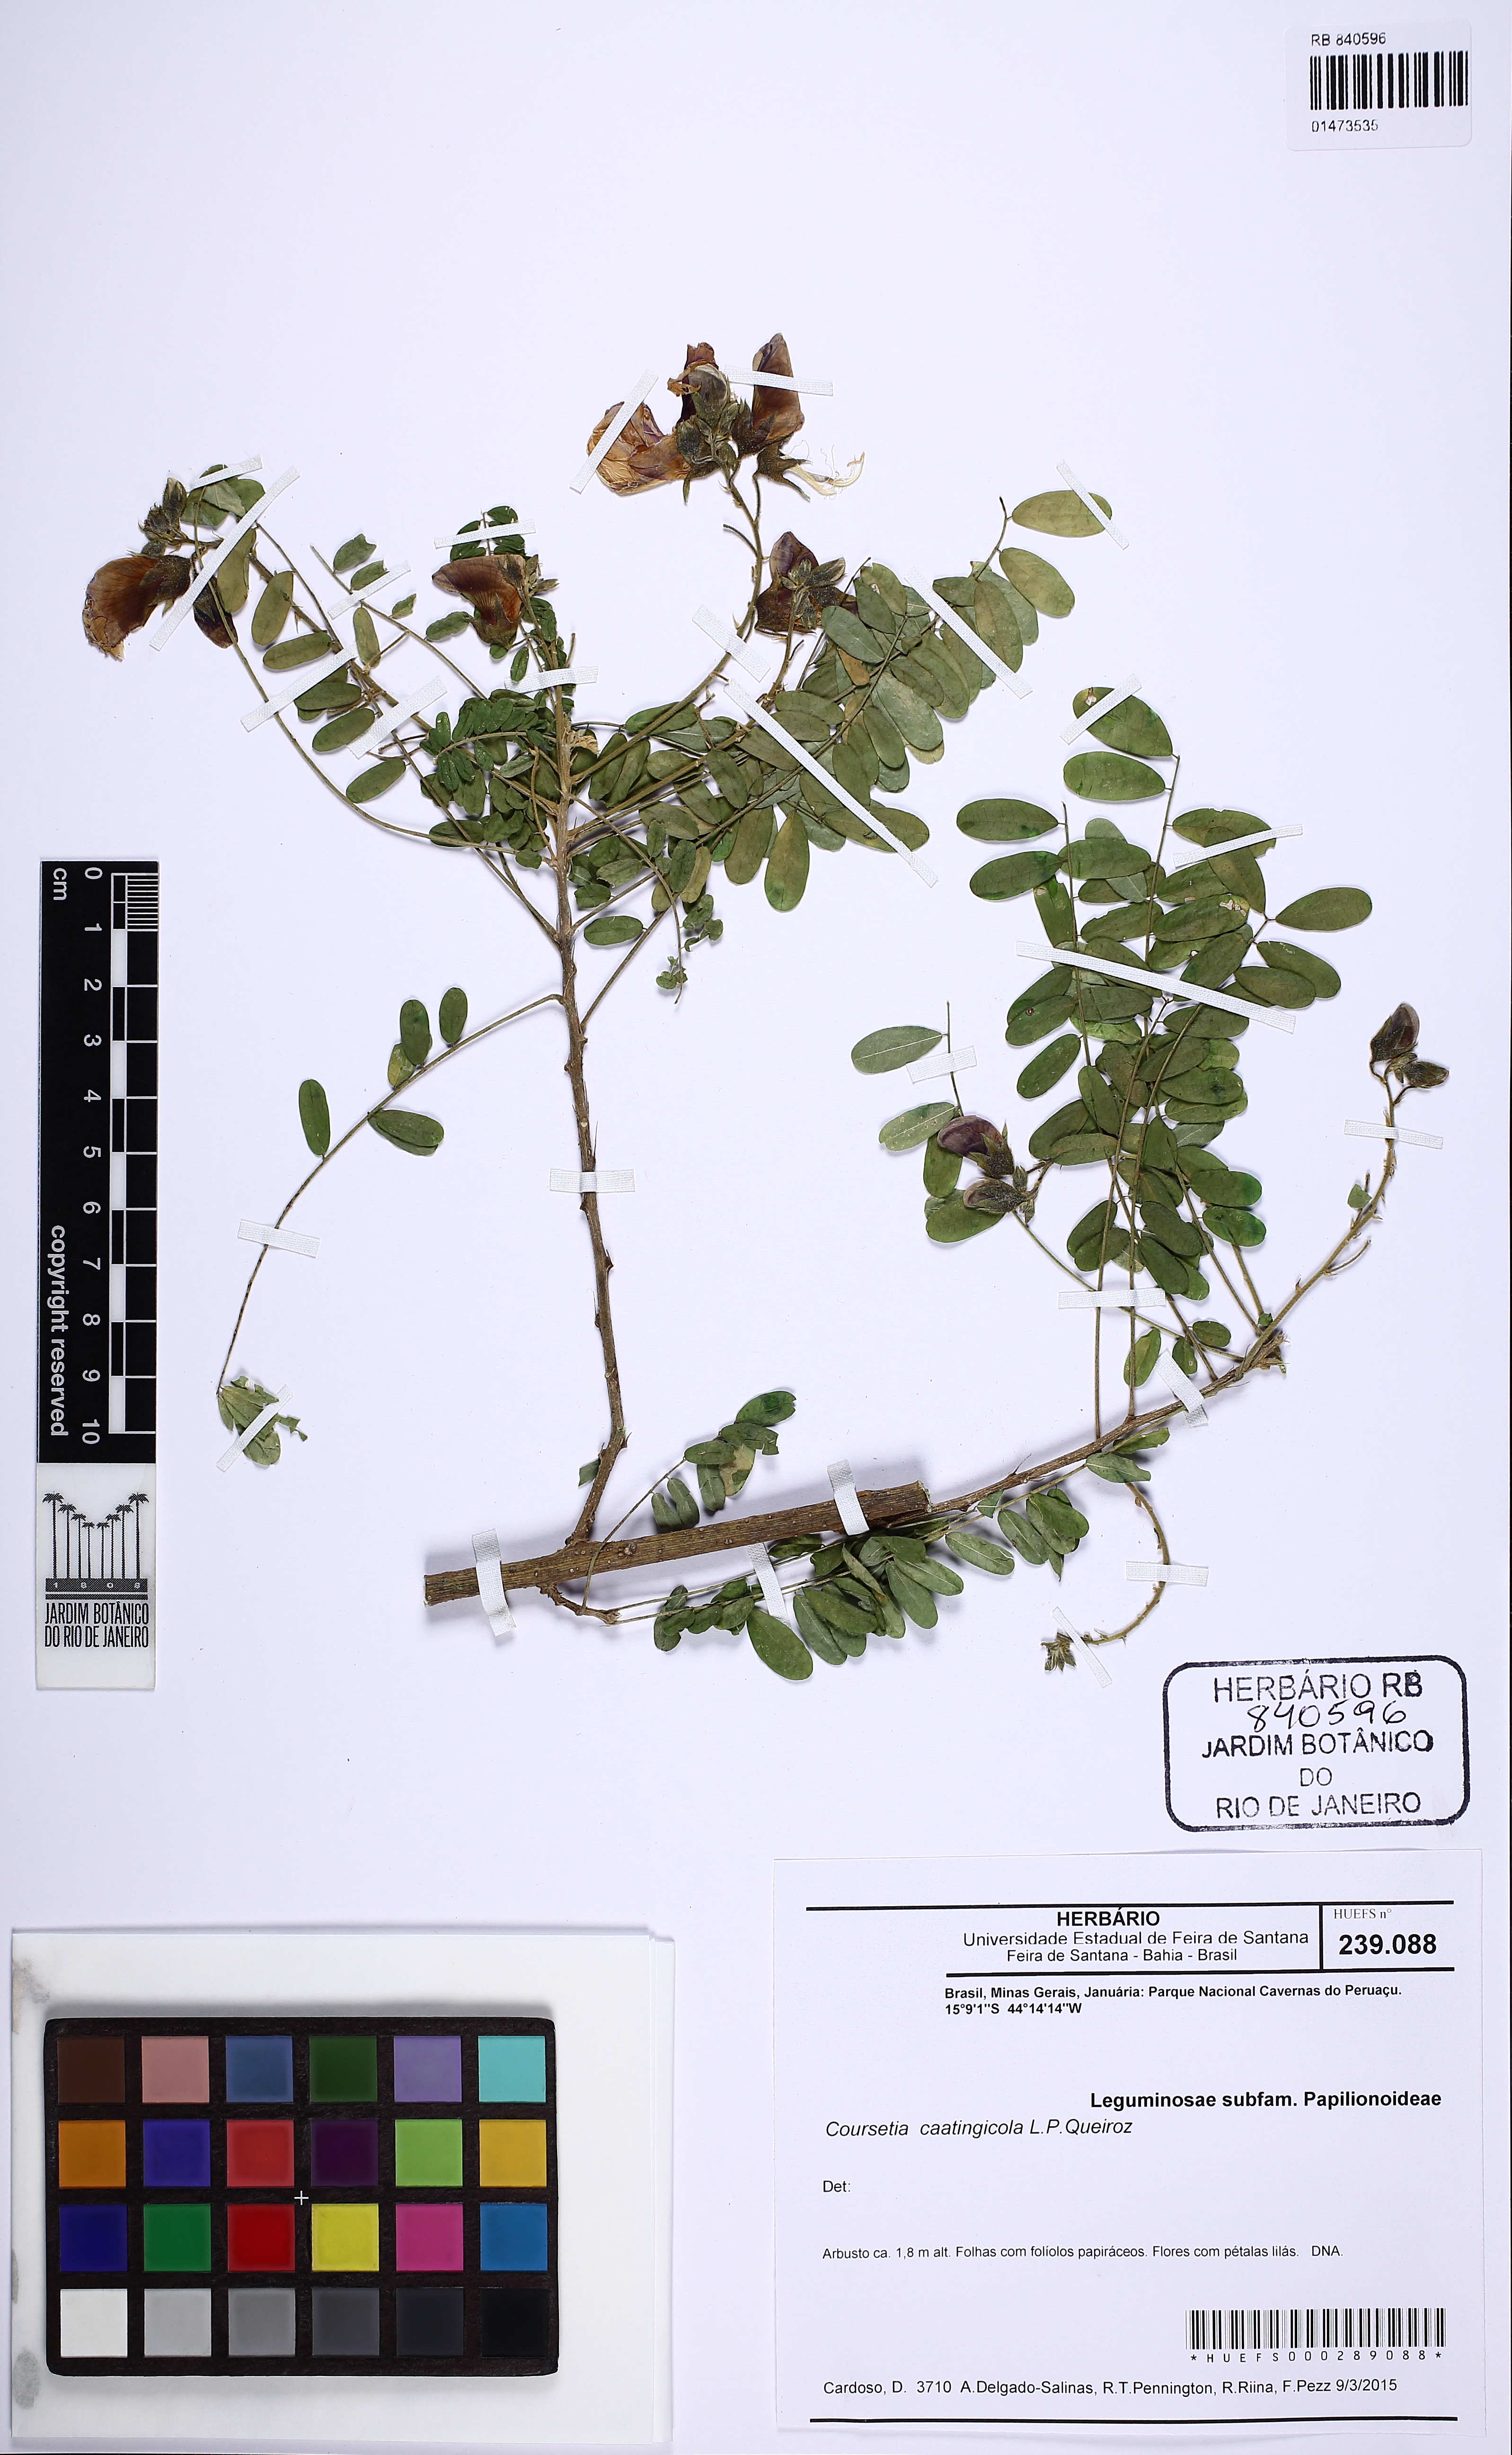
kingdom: Plantae
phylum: Tracheophyta
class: Magnoliopsida
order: Fabales
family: Fabaceae
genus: Coursetia
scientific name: Coursetia caatingicola
